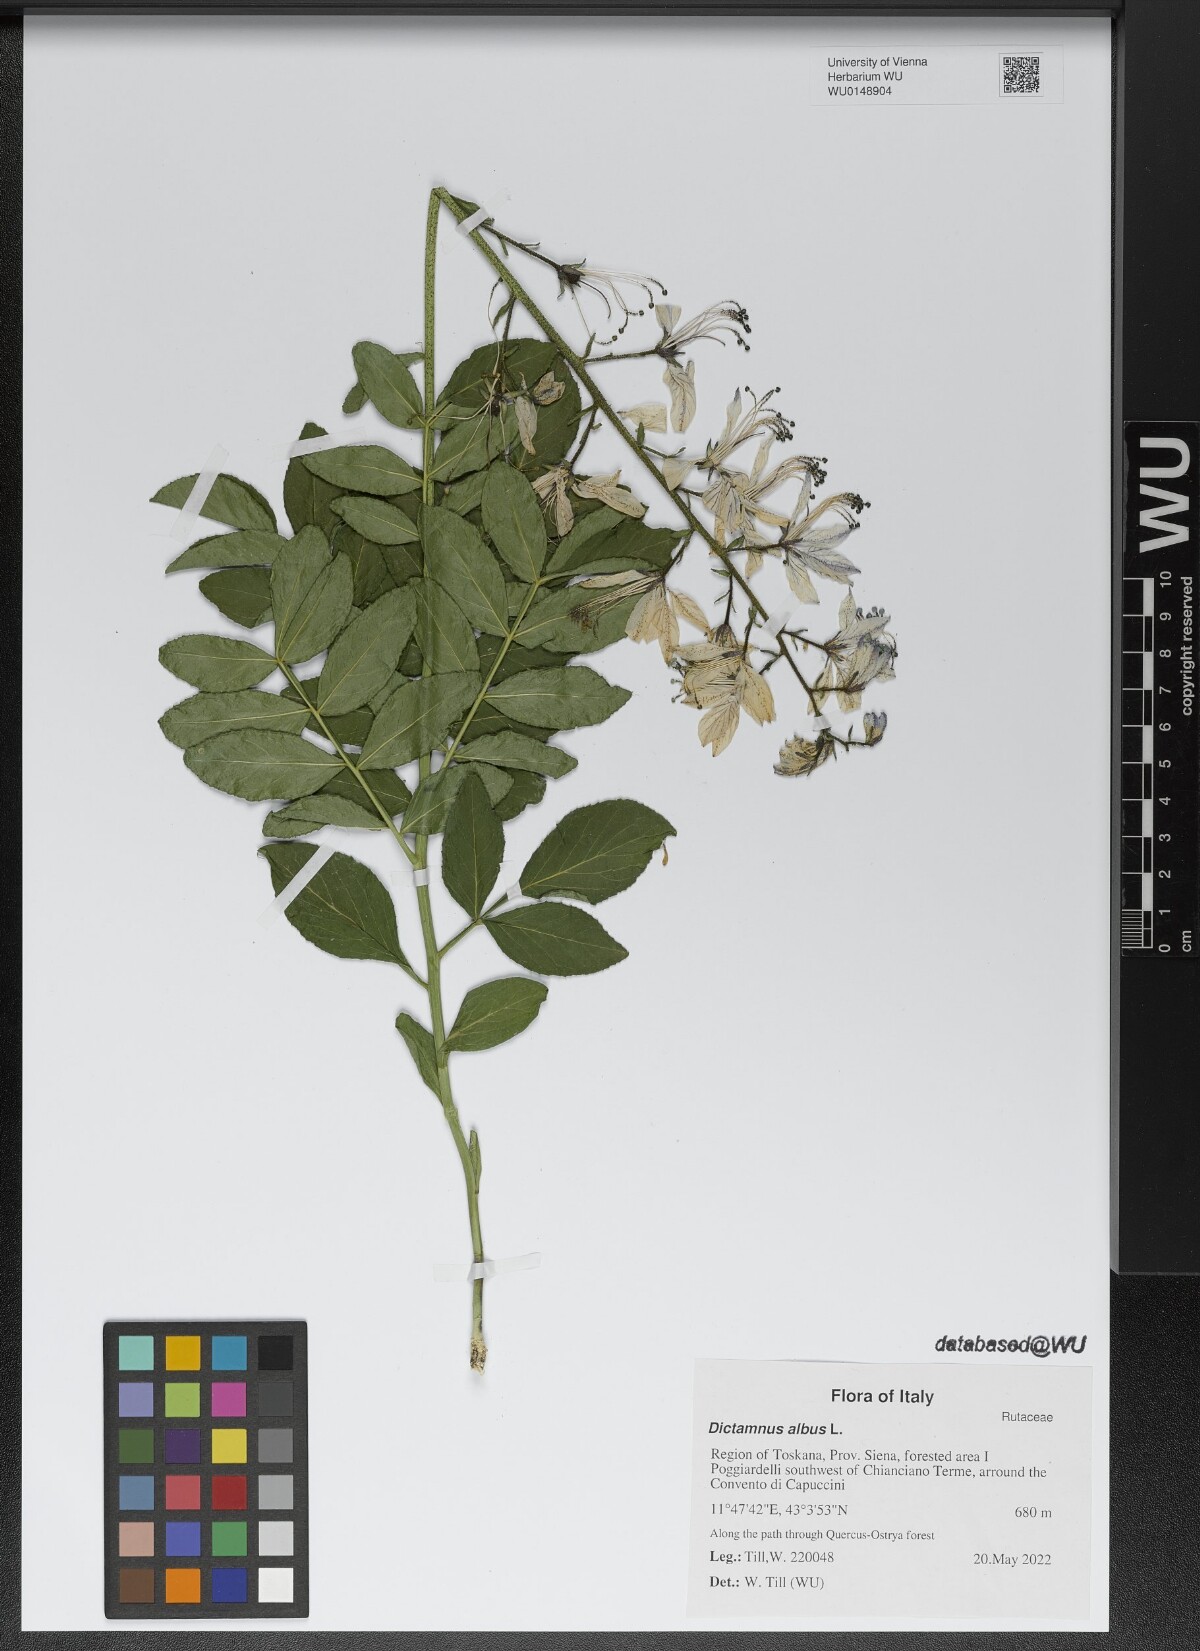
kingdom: Plantae
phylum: Tracheophyta
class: Magnoliopsida
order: Sapindales
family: Rutaceae
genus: Dictamnus
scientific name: Dictamnus albus
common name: Gasplant
